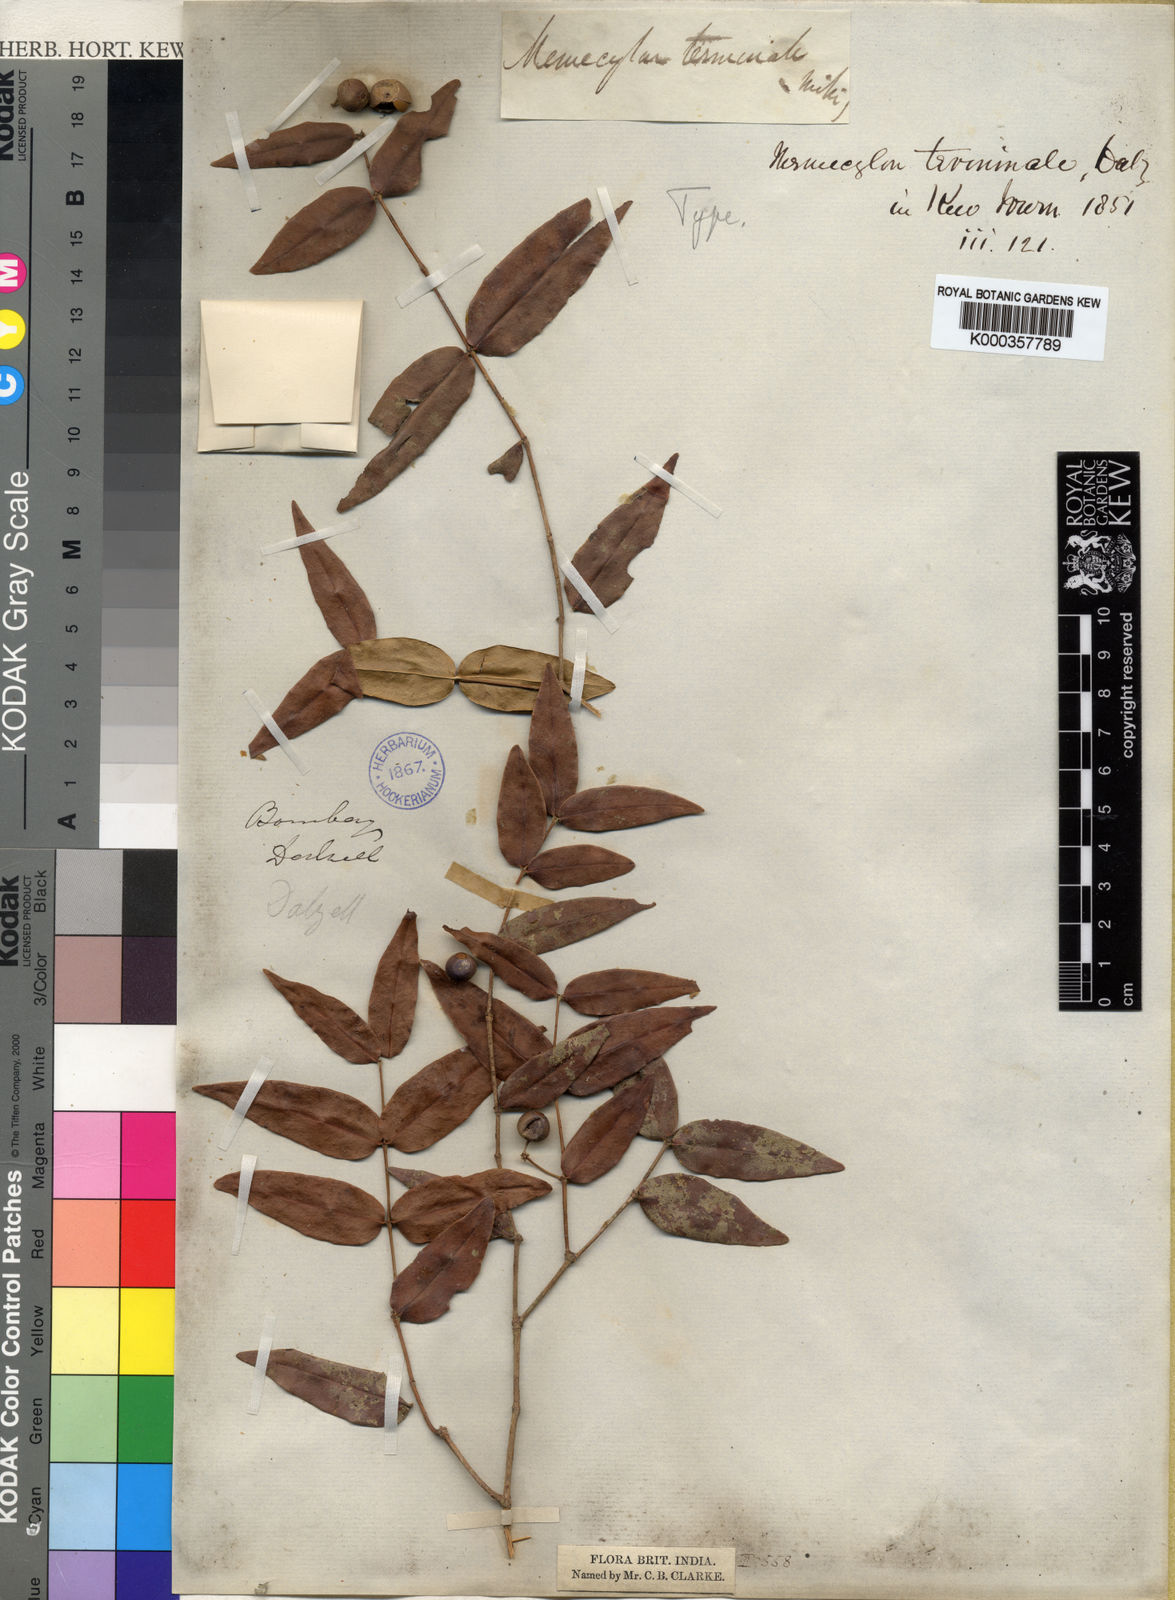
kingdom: Plantae
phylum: Tracheophyta
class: Magnoliopsida
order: Myrtales
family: Melastomataceae
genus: Memecylon
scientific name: Memecylon terminale
